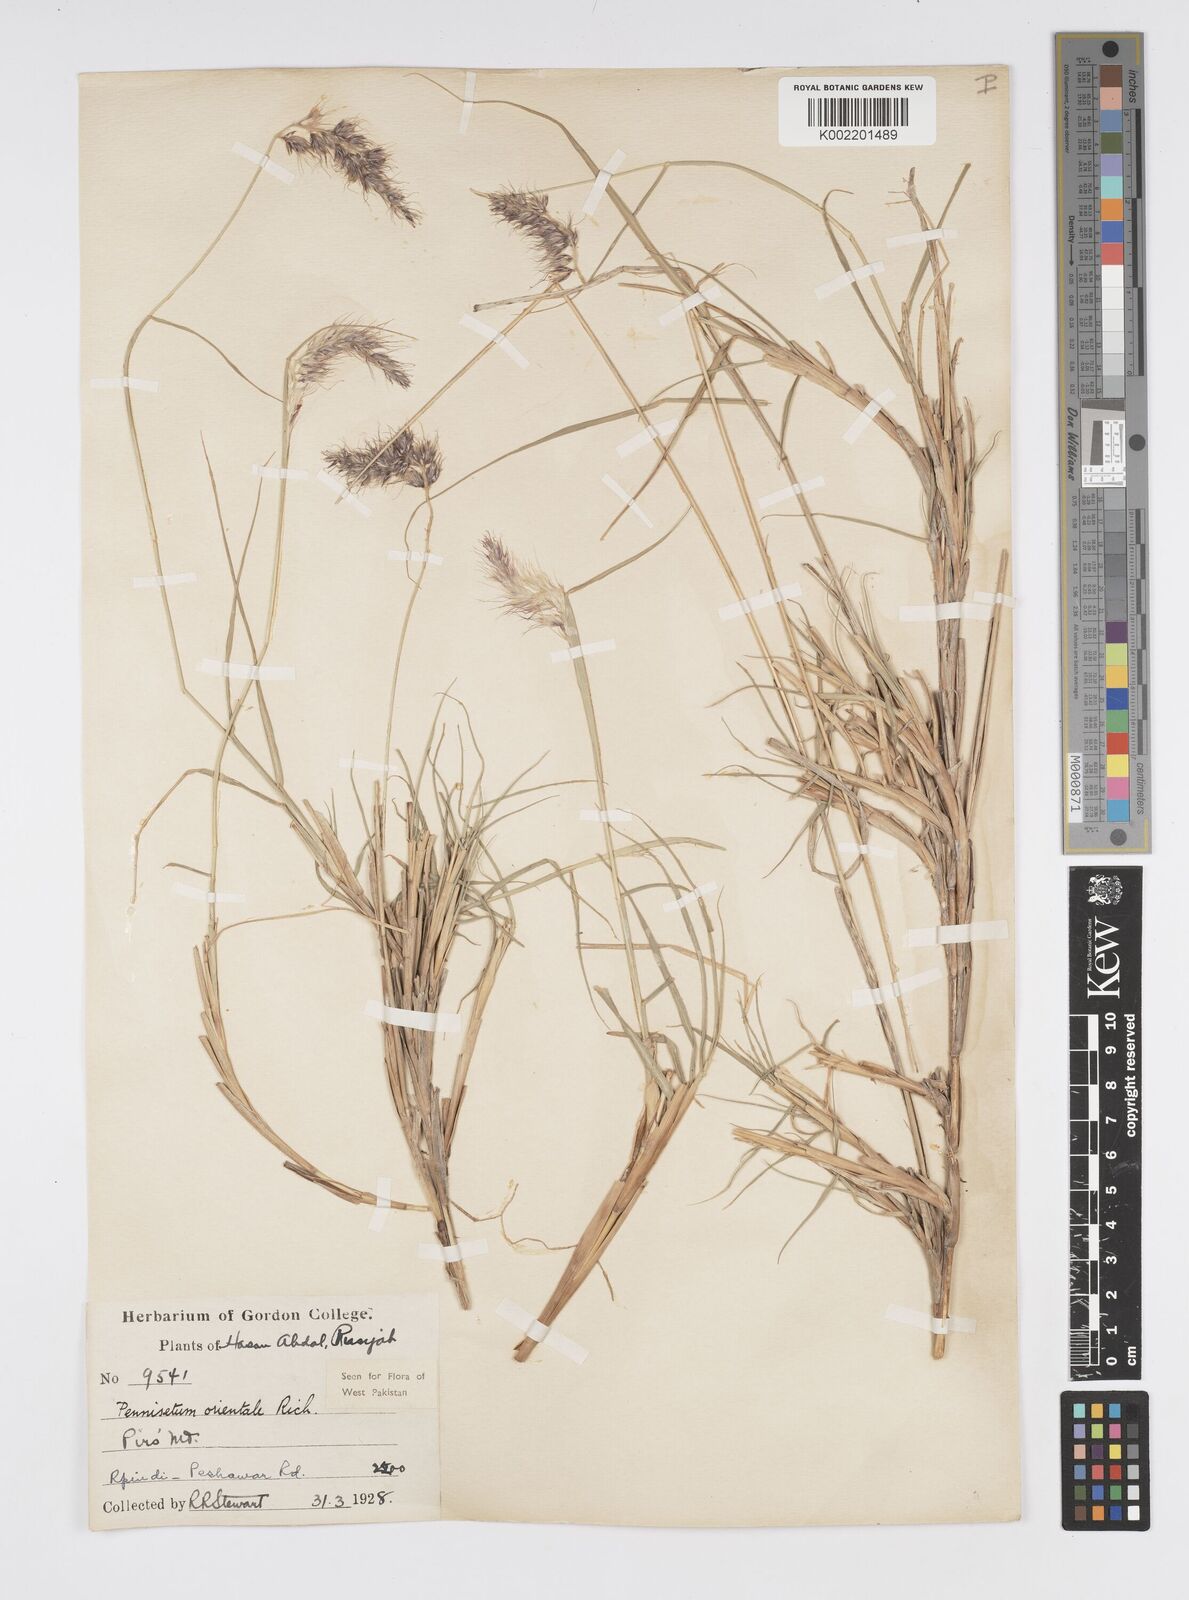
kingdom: Plantae
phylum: Tracheophyta
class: Liliopsida
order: Poales
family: Poaceae
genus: Cenchrus
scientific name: Cenchrus orientalis
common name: Oriental fountain grass
